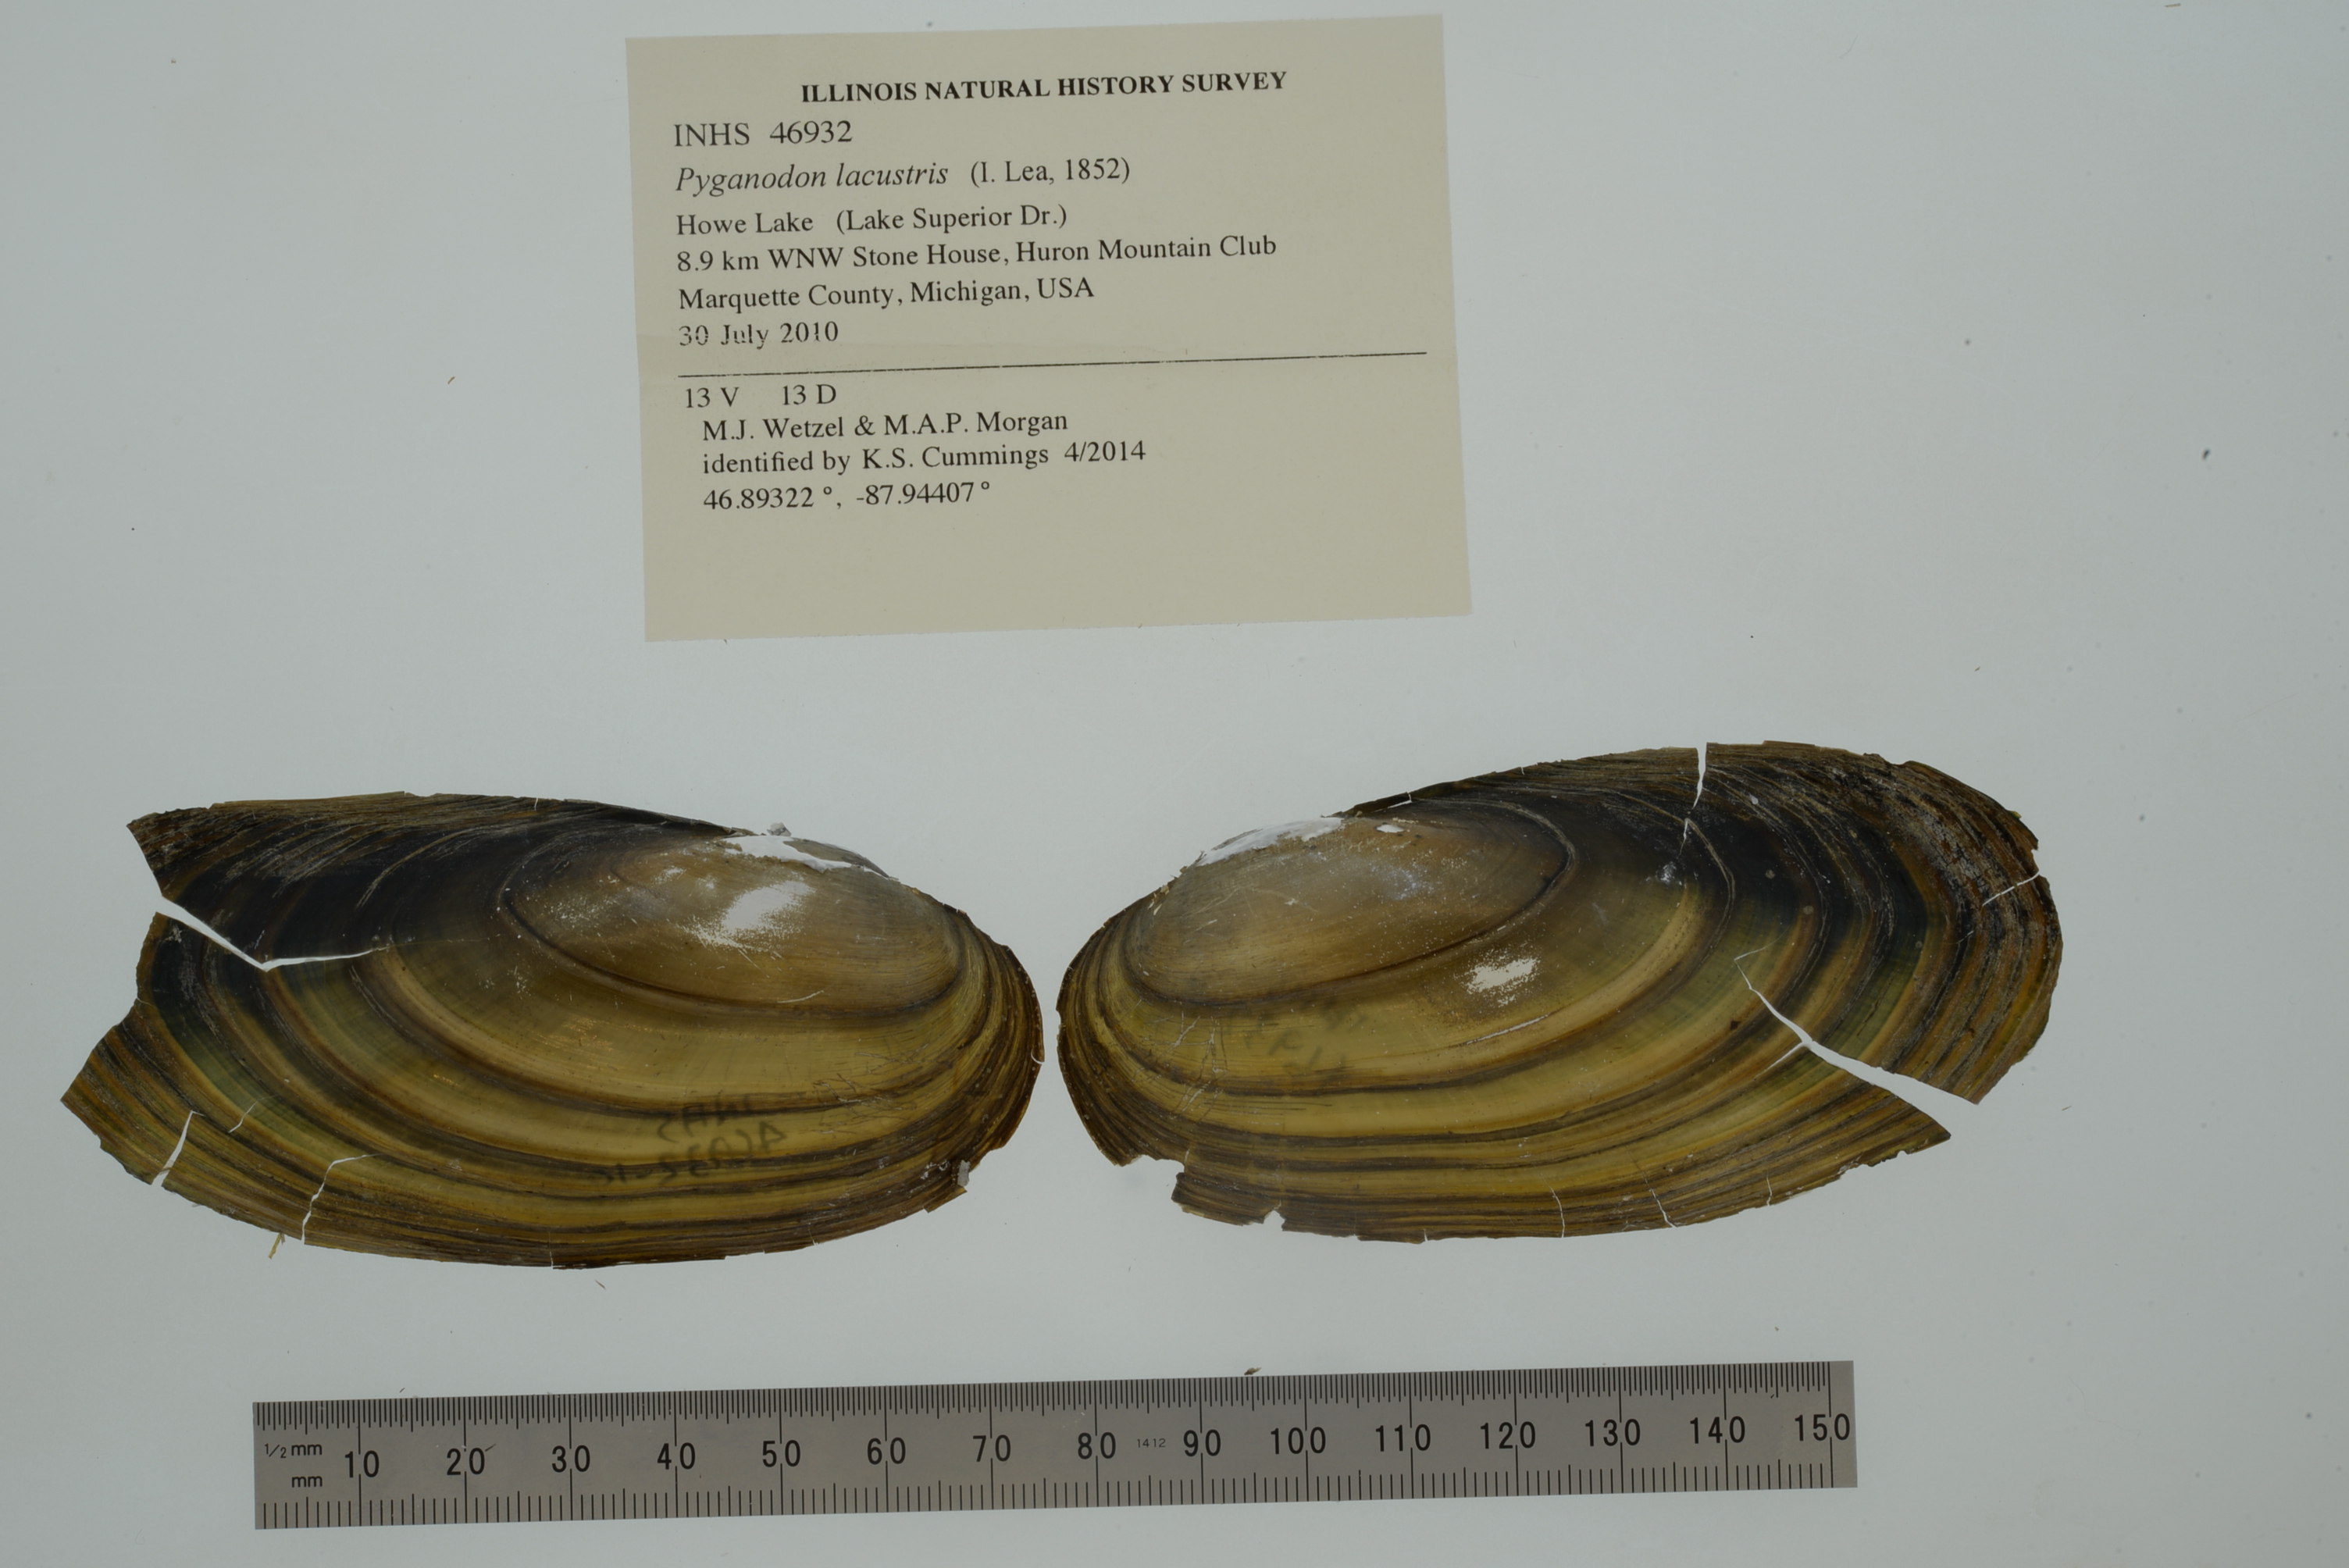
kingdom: Animalia
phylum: Mollusca
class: Bivalvia
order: Unionida
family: Unionidae
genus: Pyganodon
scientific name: Pyganodon lacustris
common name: Lake floater
